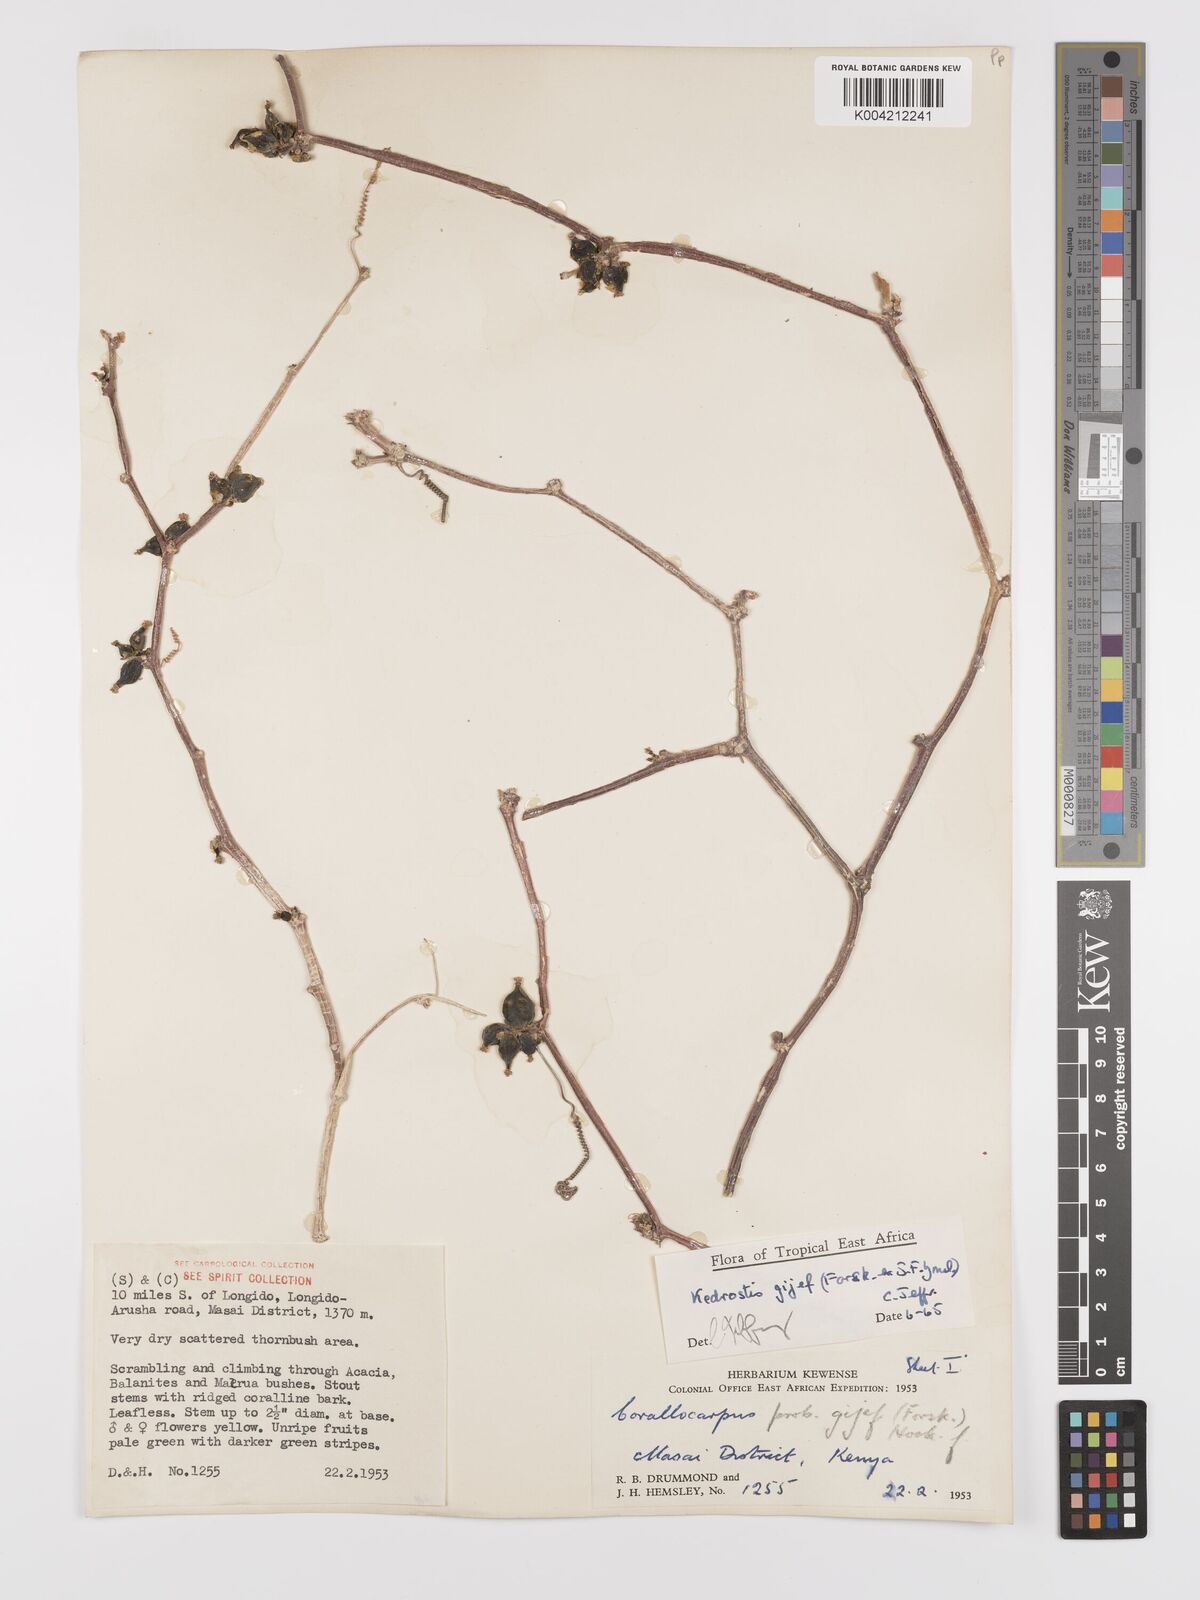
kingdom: Plantae
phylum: Tracheophyta
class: Magnoliopsida
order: Cucurbitales
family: Cucurbitaceae
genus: Kedrostis
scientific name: Kedrostis gijef
